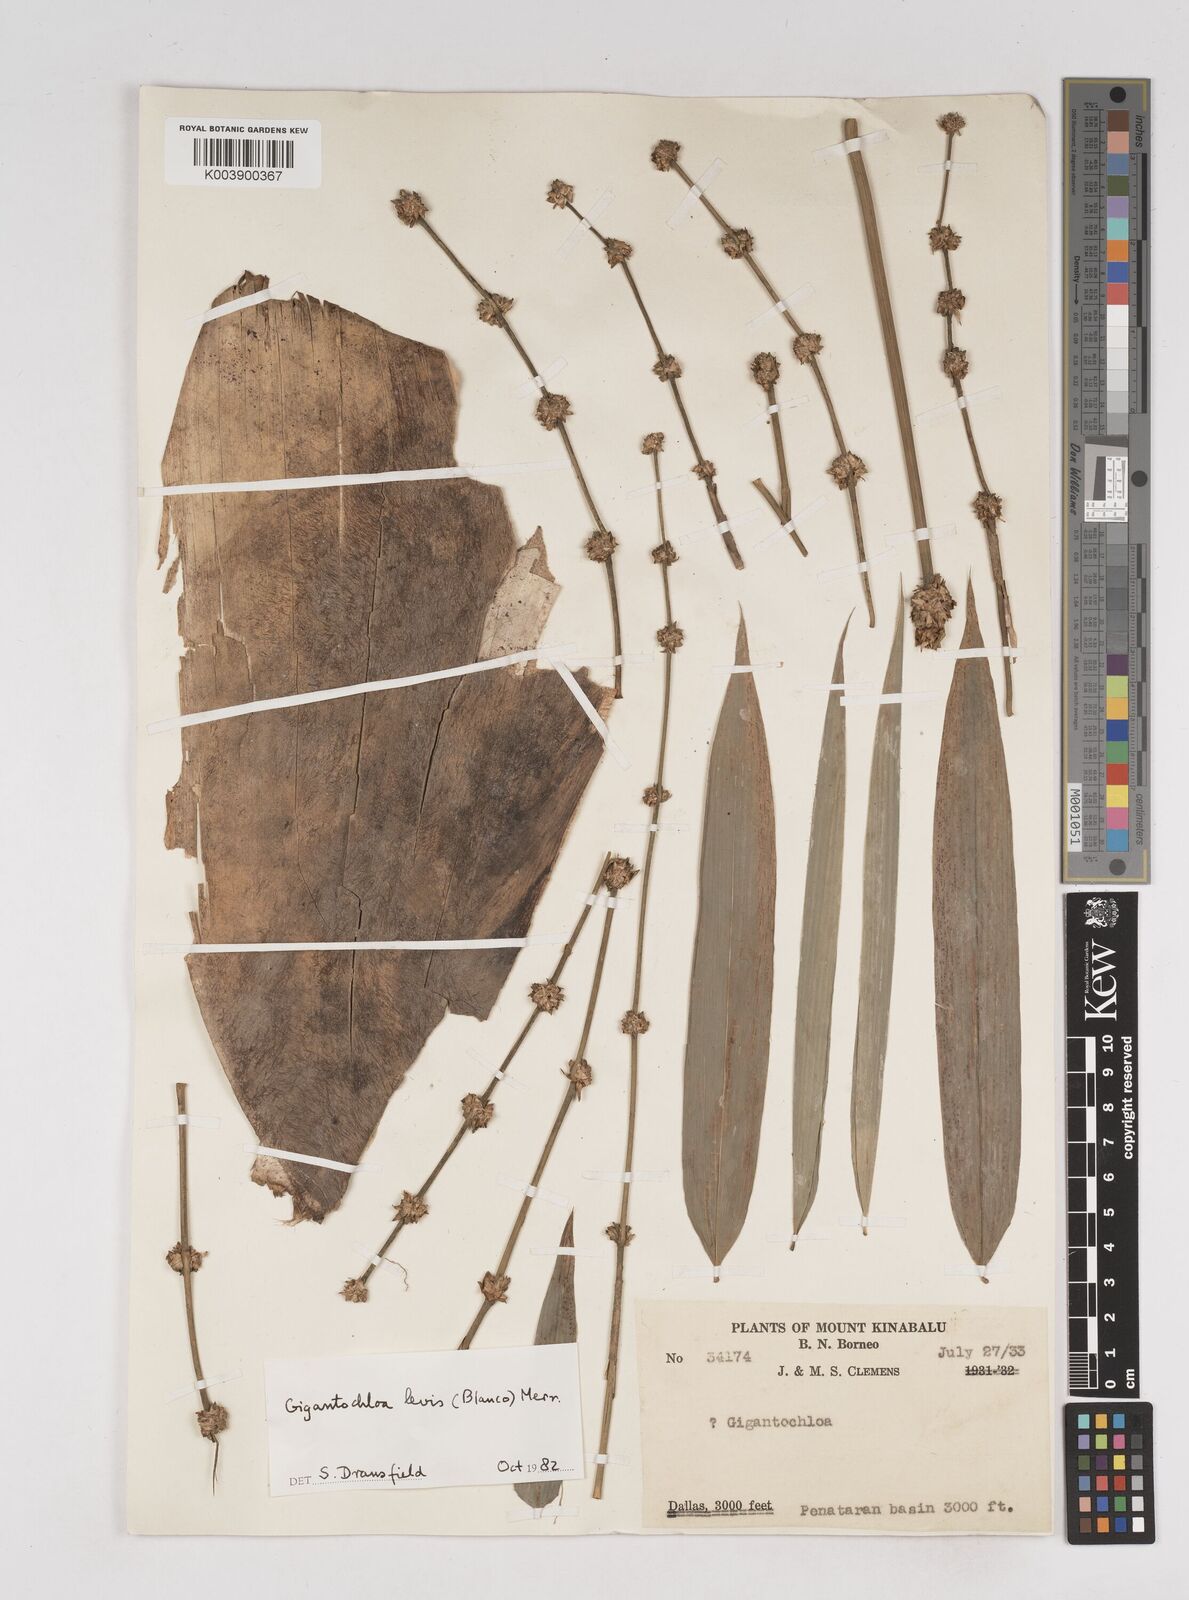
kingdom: Plantae
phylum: Tracheophyta
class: Liliopsida
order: Poales
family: Poaceae
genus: Gigantochloa
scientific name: Gigantochloa
